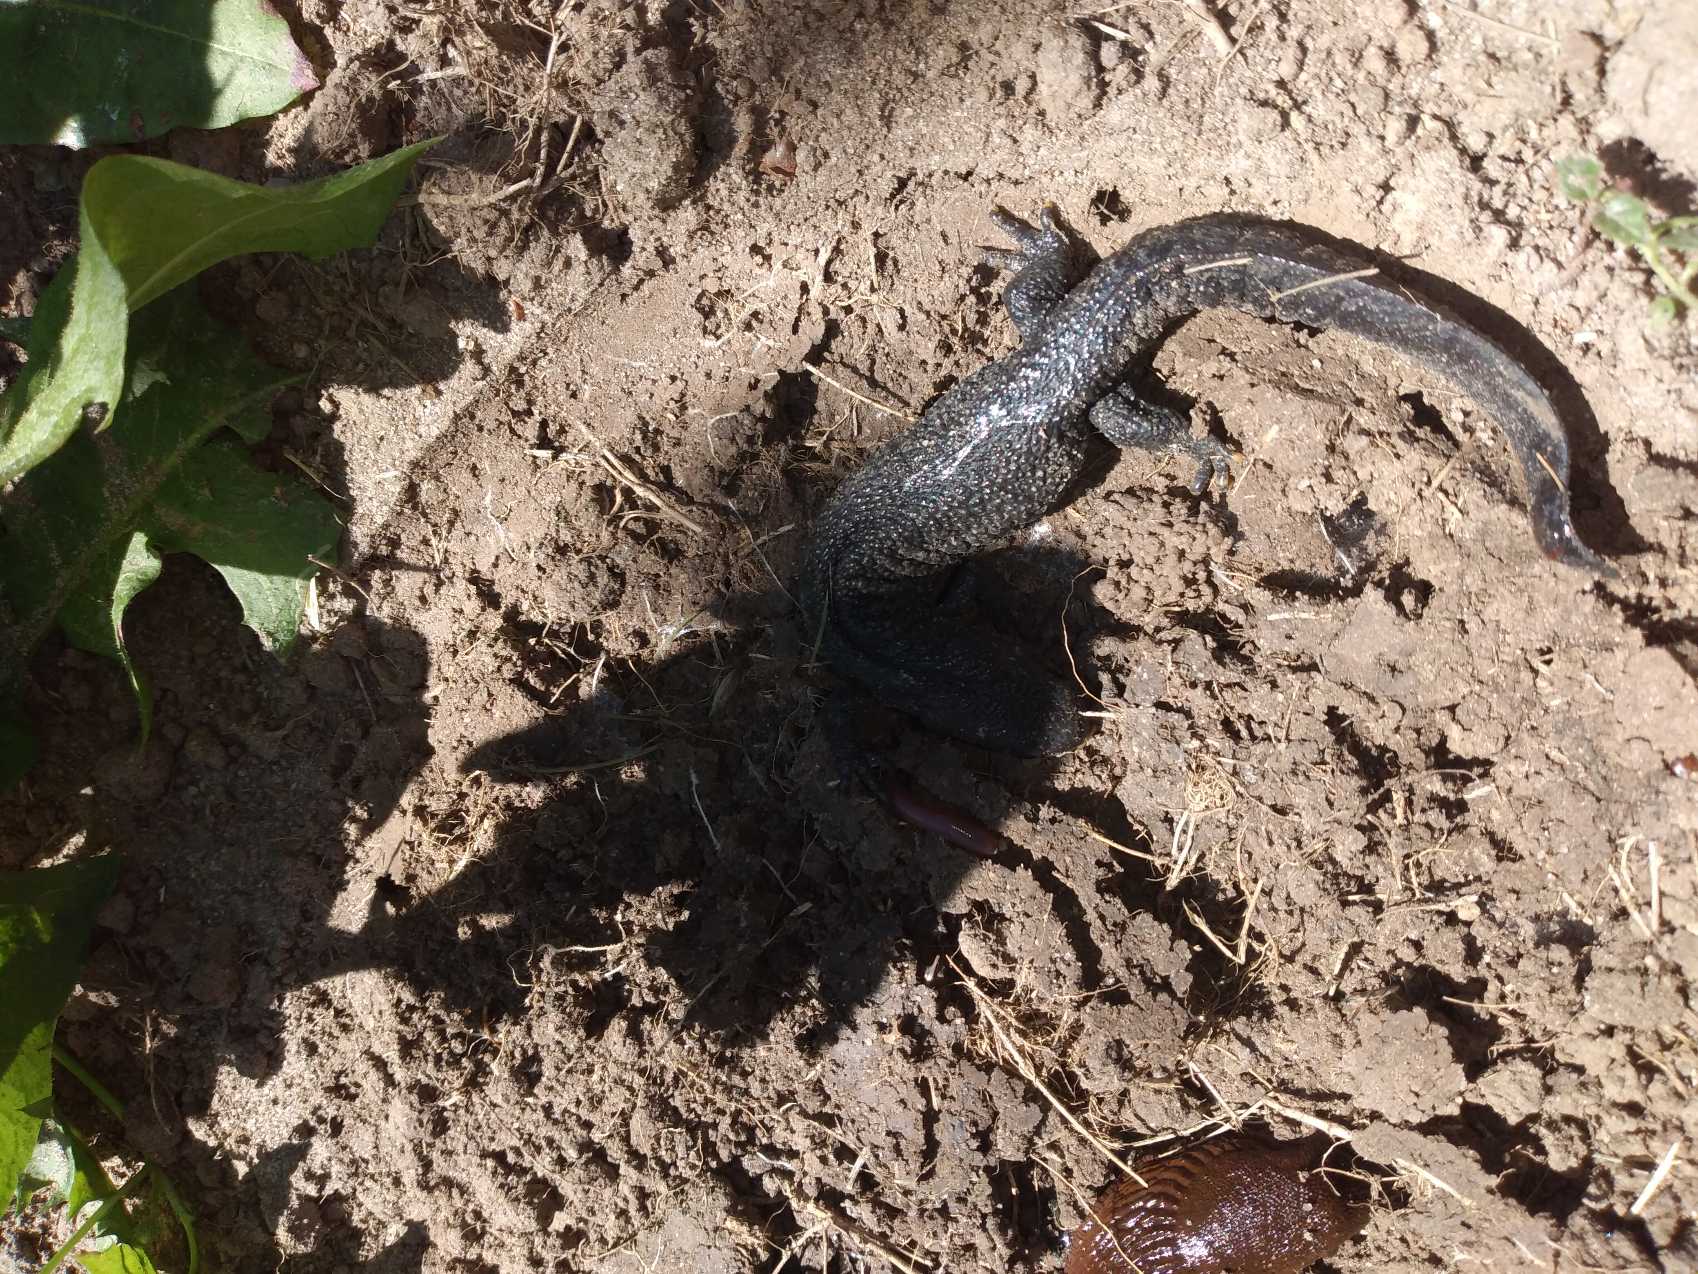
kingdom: Animalia
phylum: Chordata
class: Amphibia
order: Caudata
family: Salamandridae
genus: Triturus
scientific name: Triturus cristatus
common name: Stor vandsalamander
